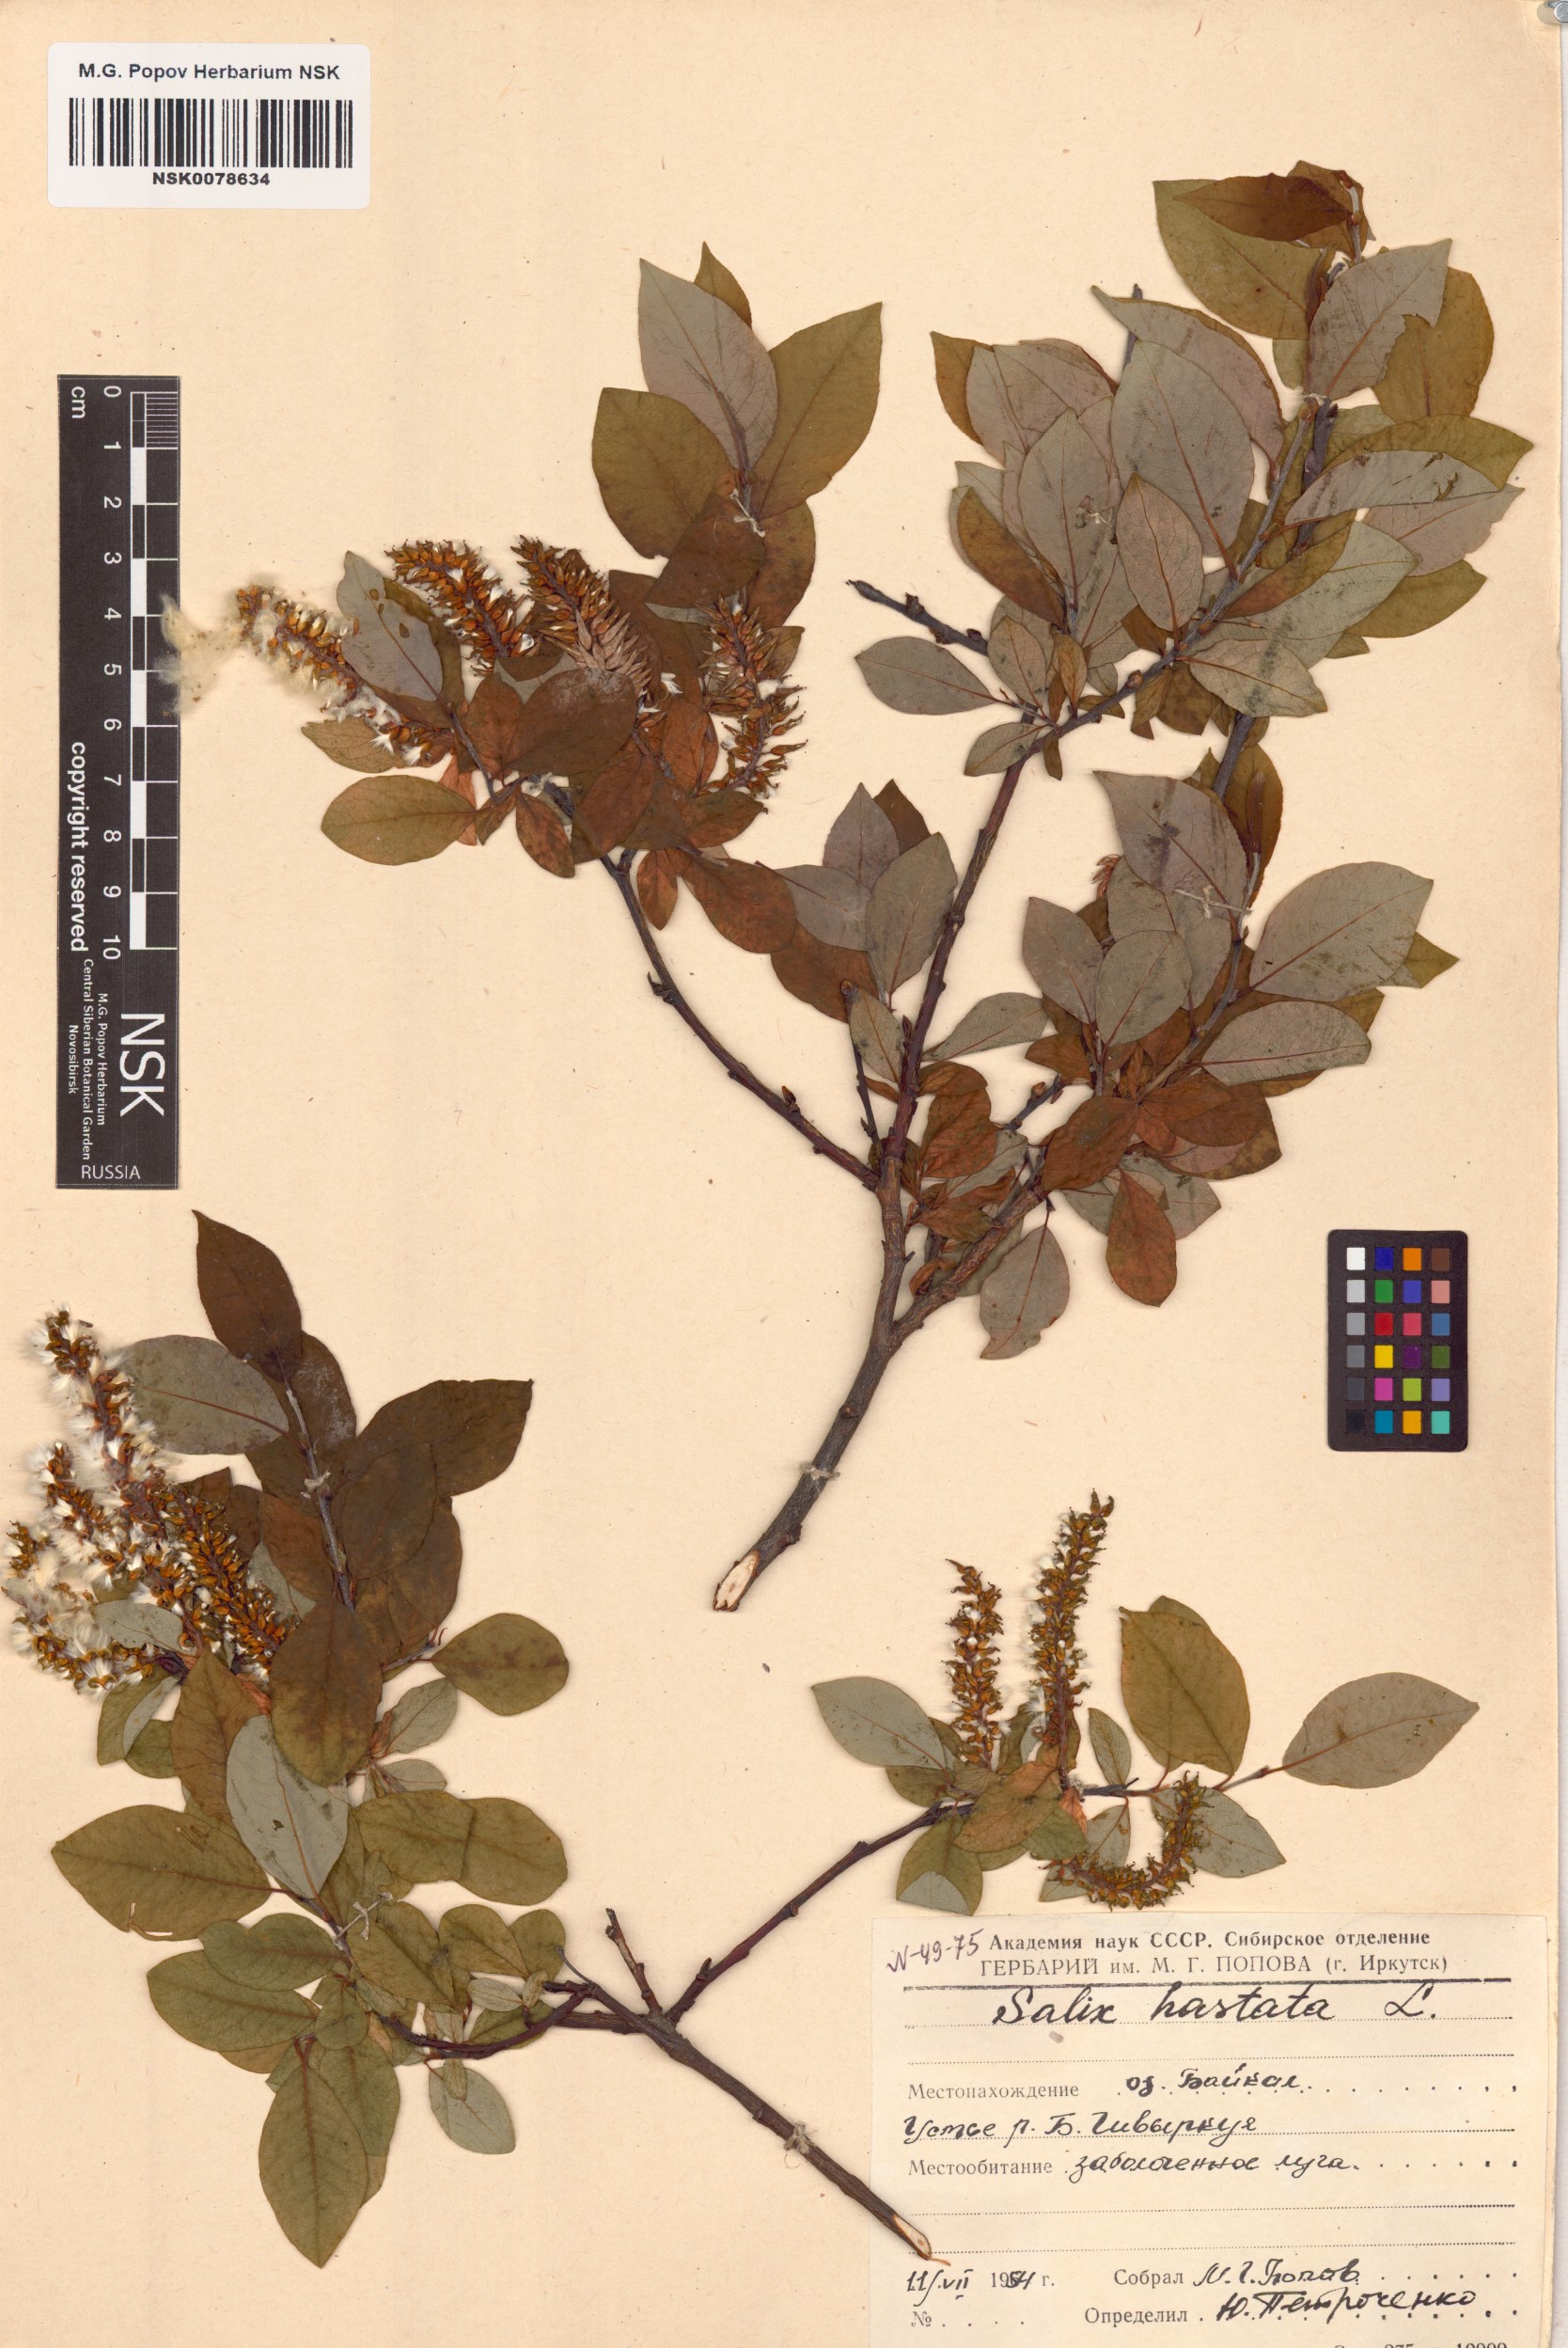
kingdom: Plantae
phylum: Tracheophyta
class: Magnoliopsida
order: Malpighiales
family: Salicaceae
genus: Salix
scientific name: Salix hastata
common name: Halberd willow
